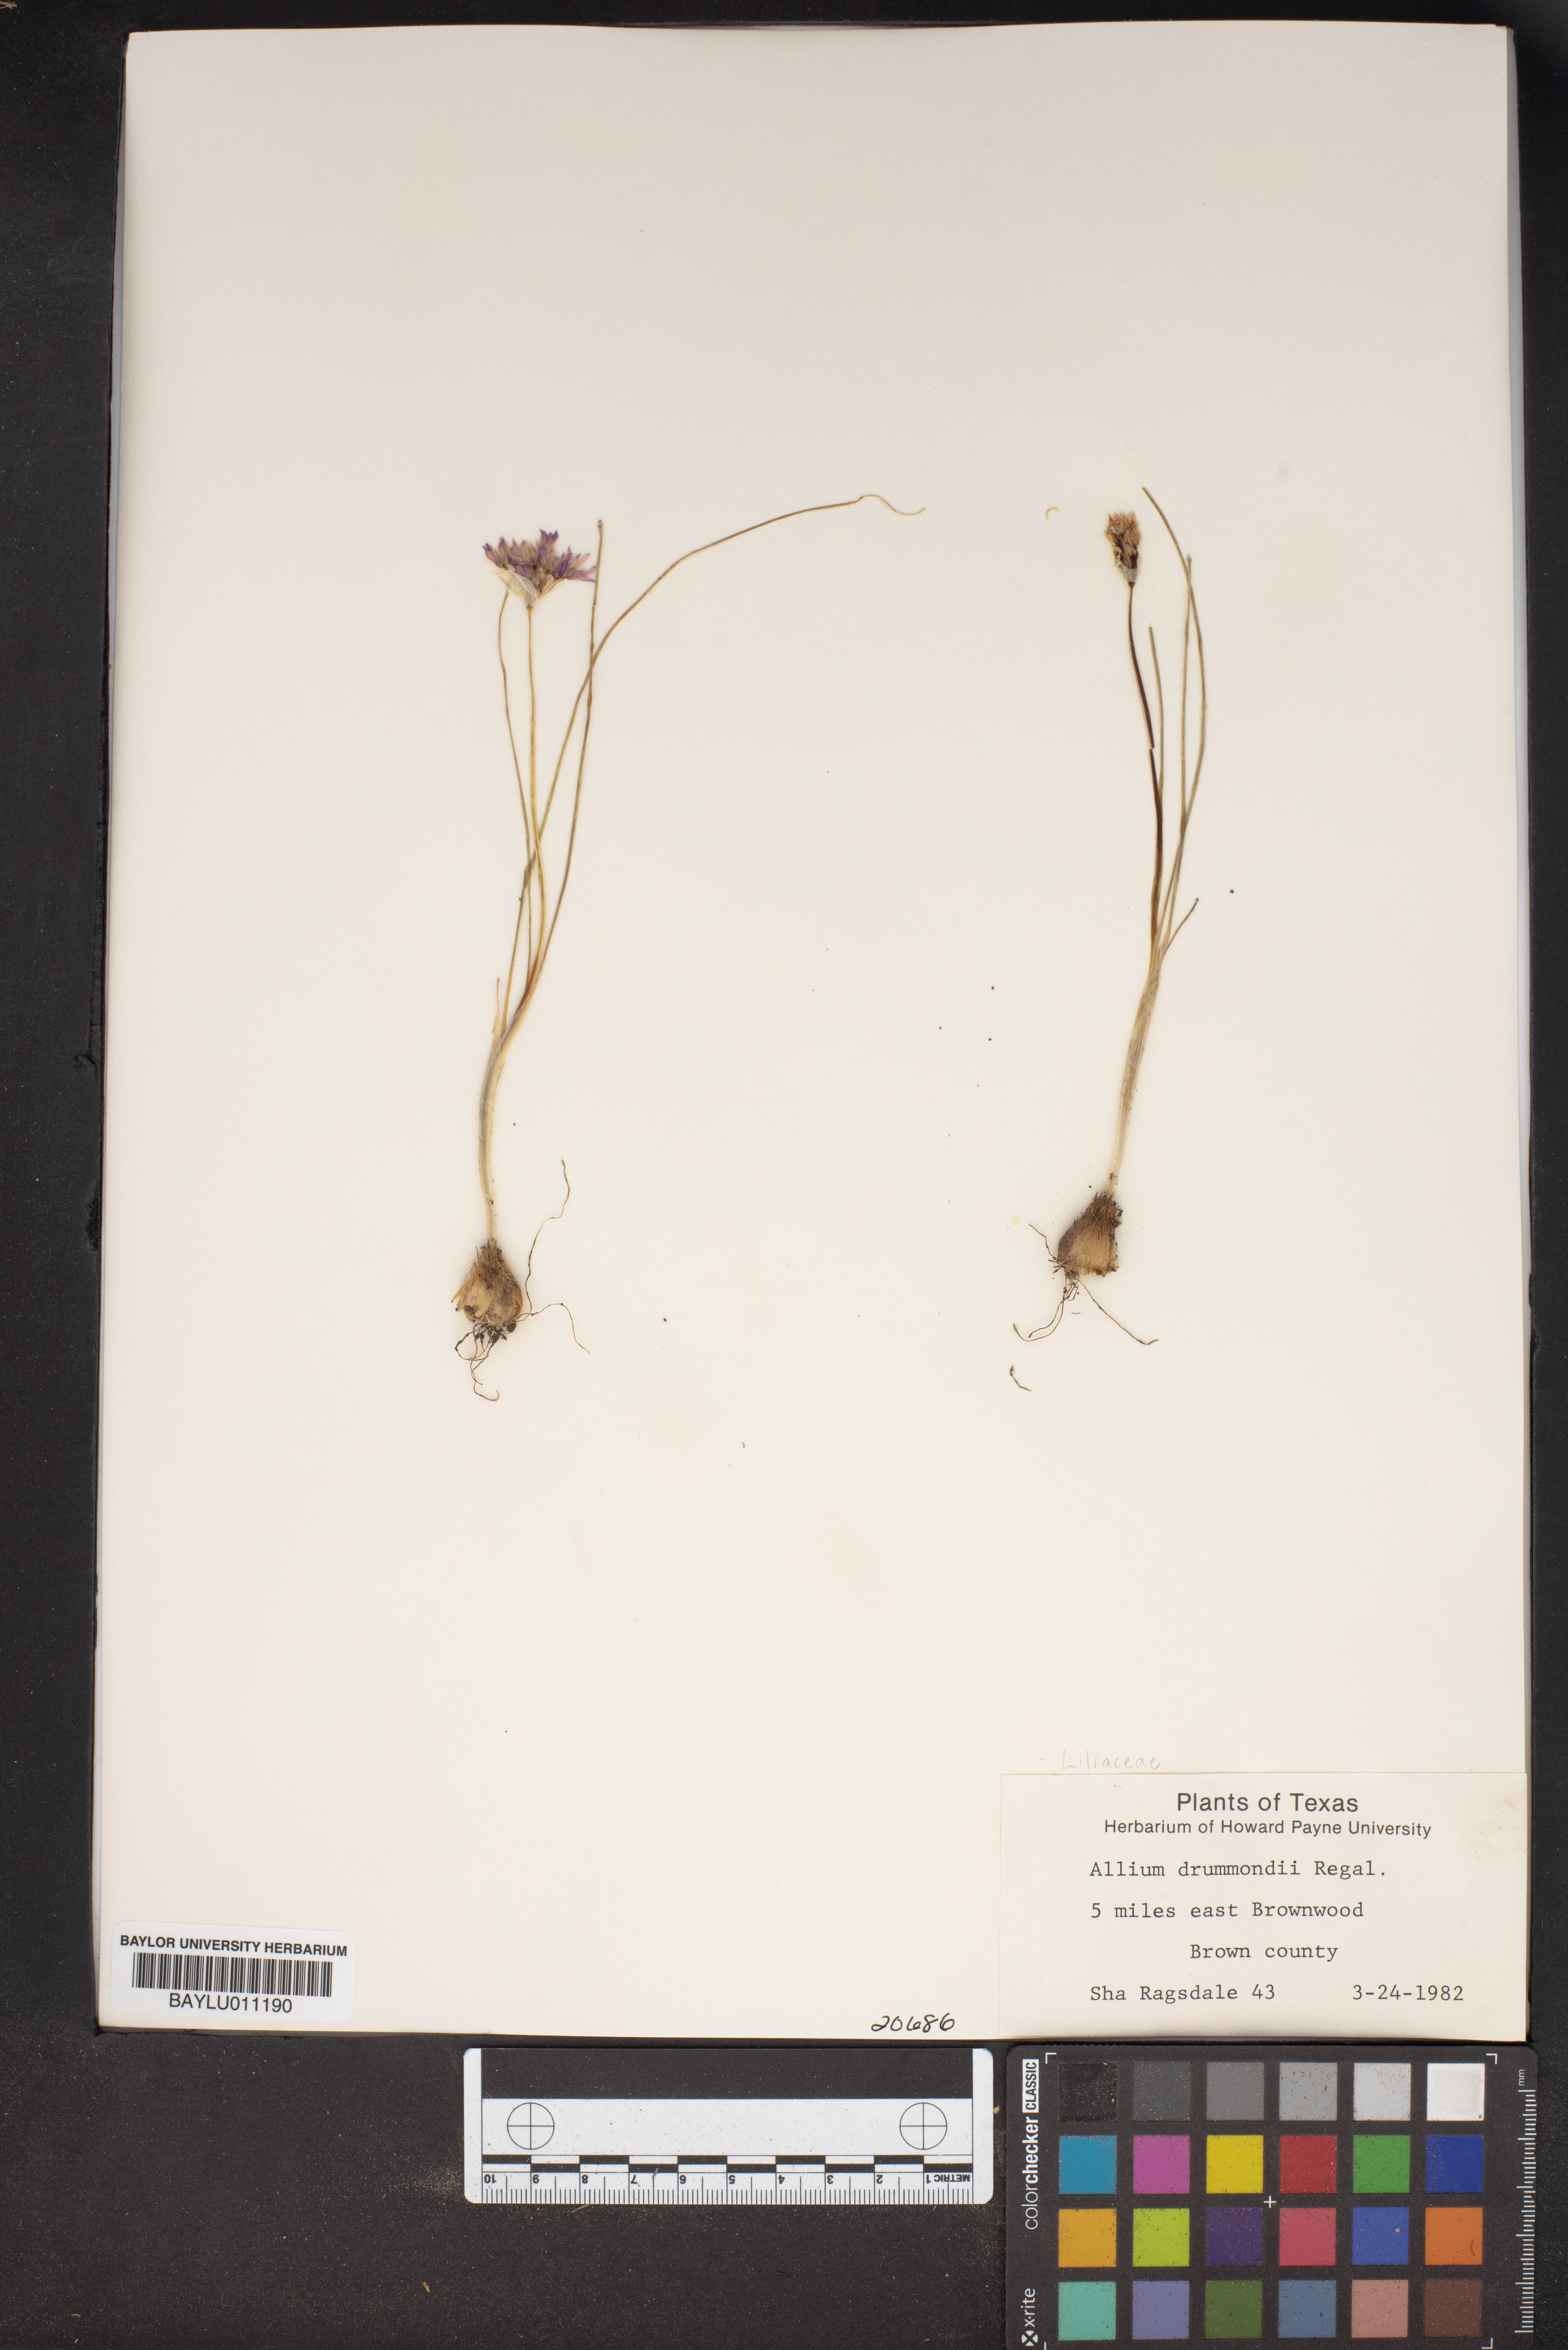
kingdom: Plantae
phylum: Tracheophyta
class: Liliopsida
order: Asparagales
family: Amaryllidaceae
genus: Allium
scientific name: Allium drummondii
